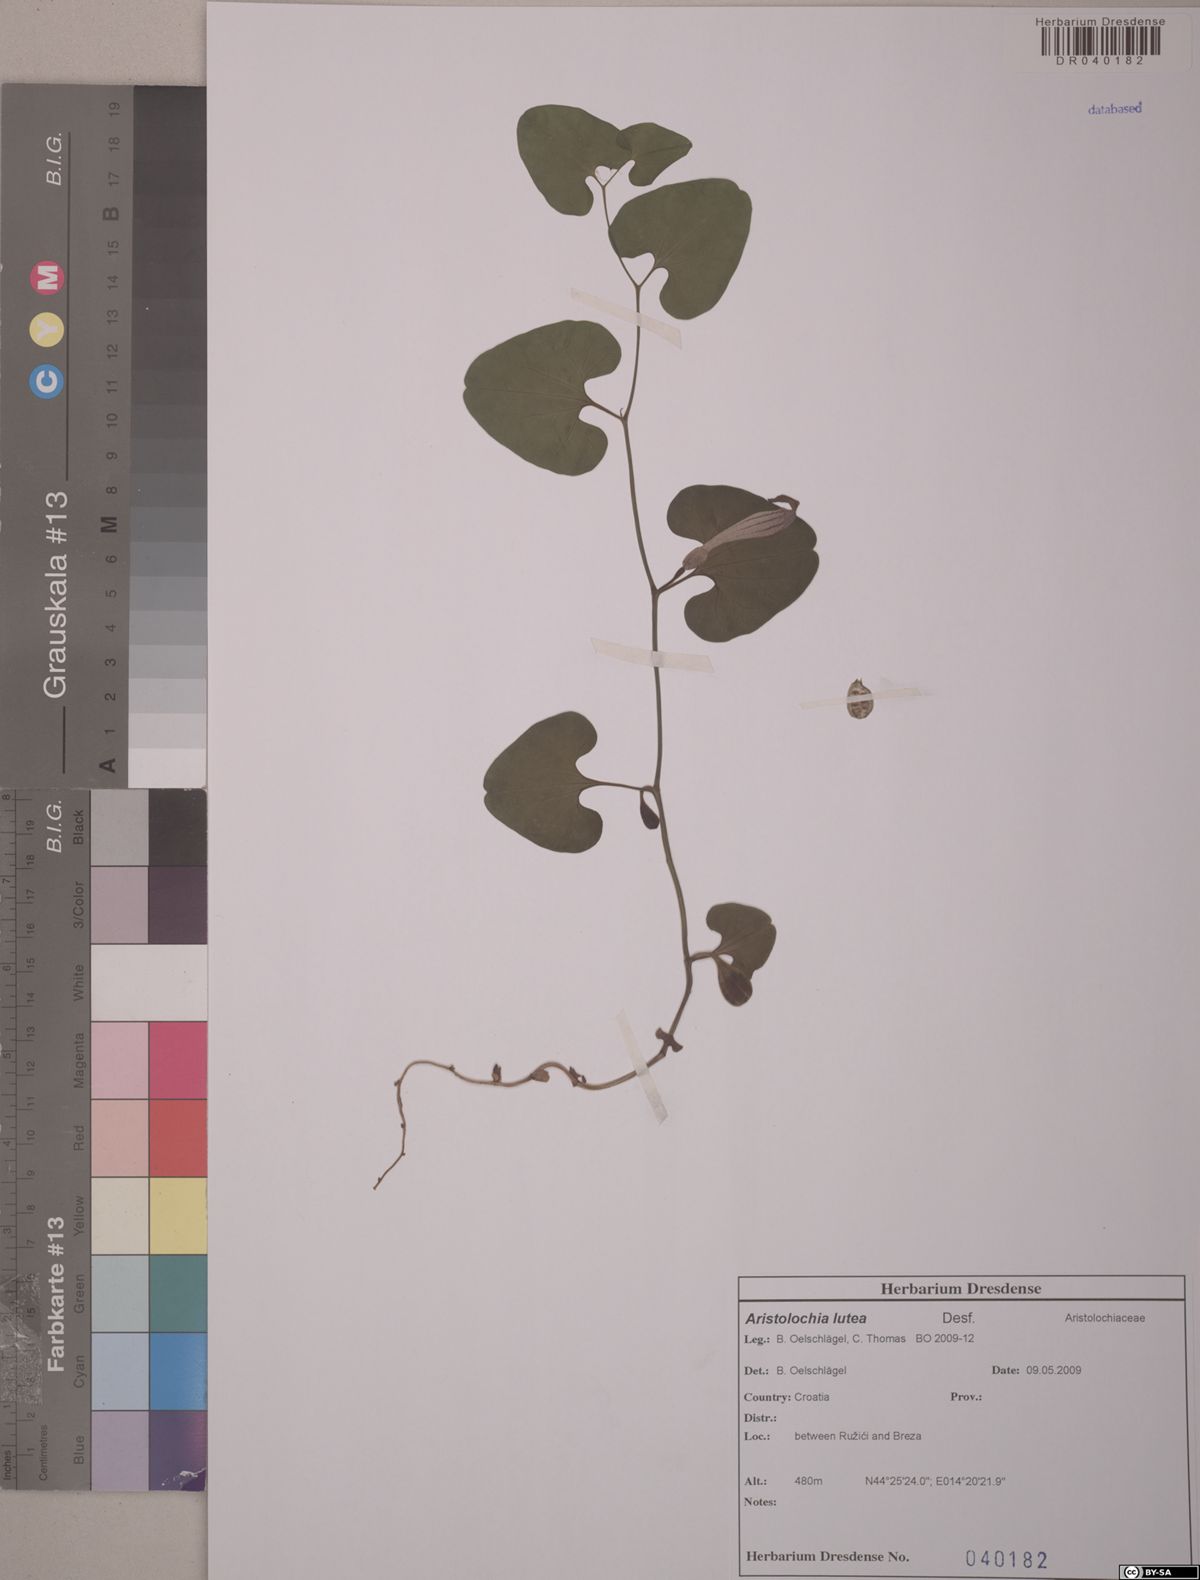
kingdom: Plantae
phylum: Tracheophyta
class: Magnoliopsida
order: Piperales
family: Aristolochiaceae
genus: Aristolochia
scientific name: Aristolochia lutea
